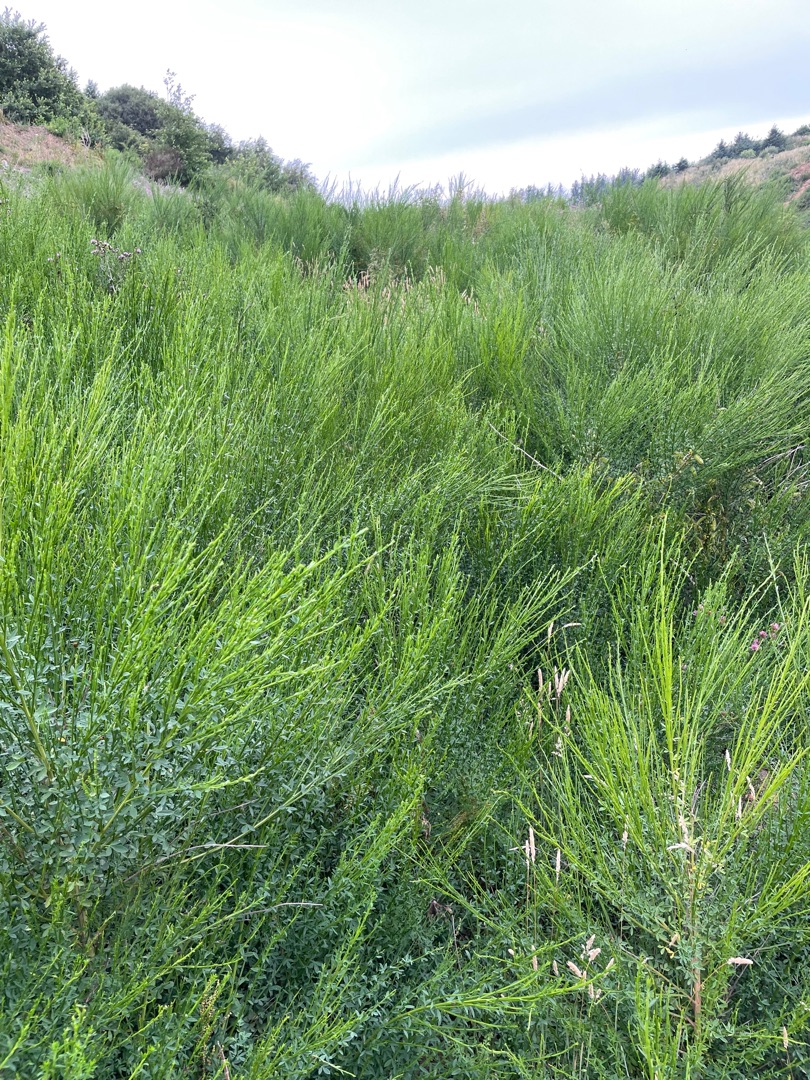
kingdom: Plantae
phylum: Tracheophyta
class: Magnoliopsida
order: Fabales
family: Fabaceae
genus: Cytisus
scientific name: Cytisus scoparius
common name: Almindelig gyvel
